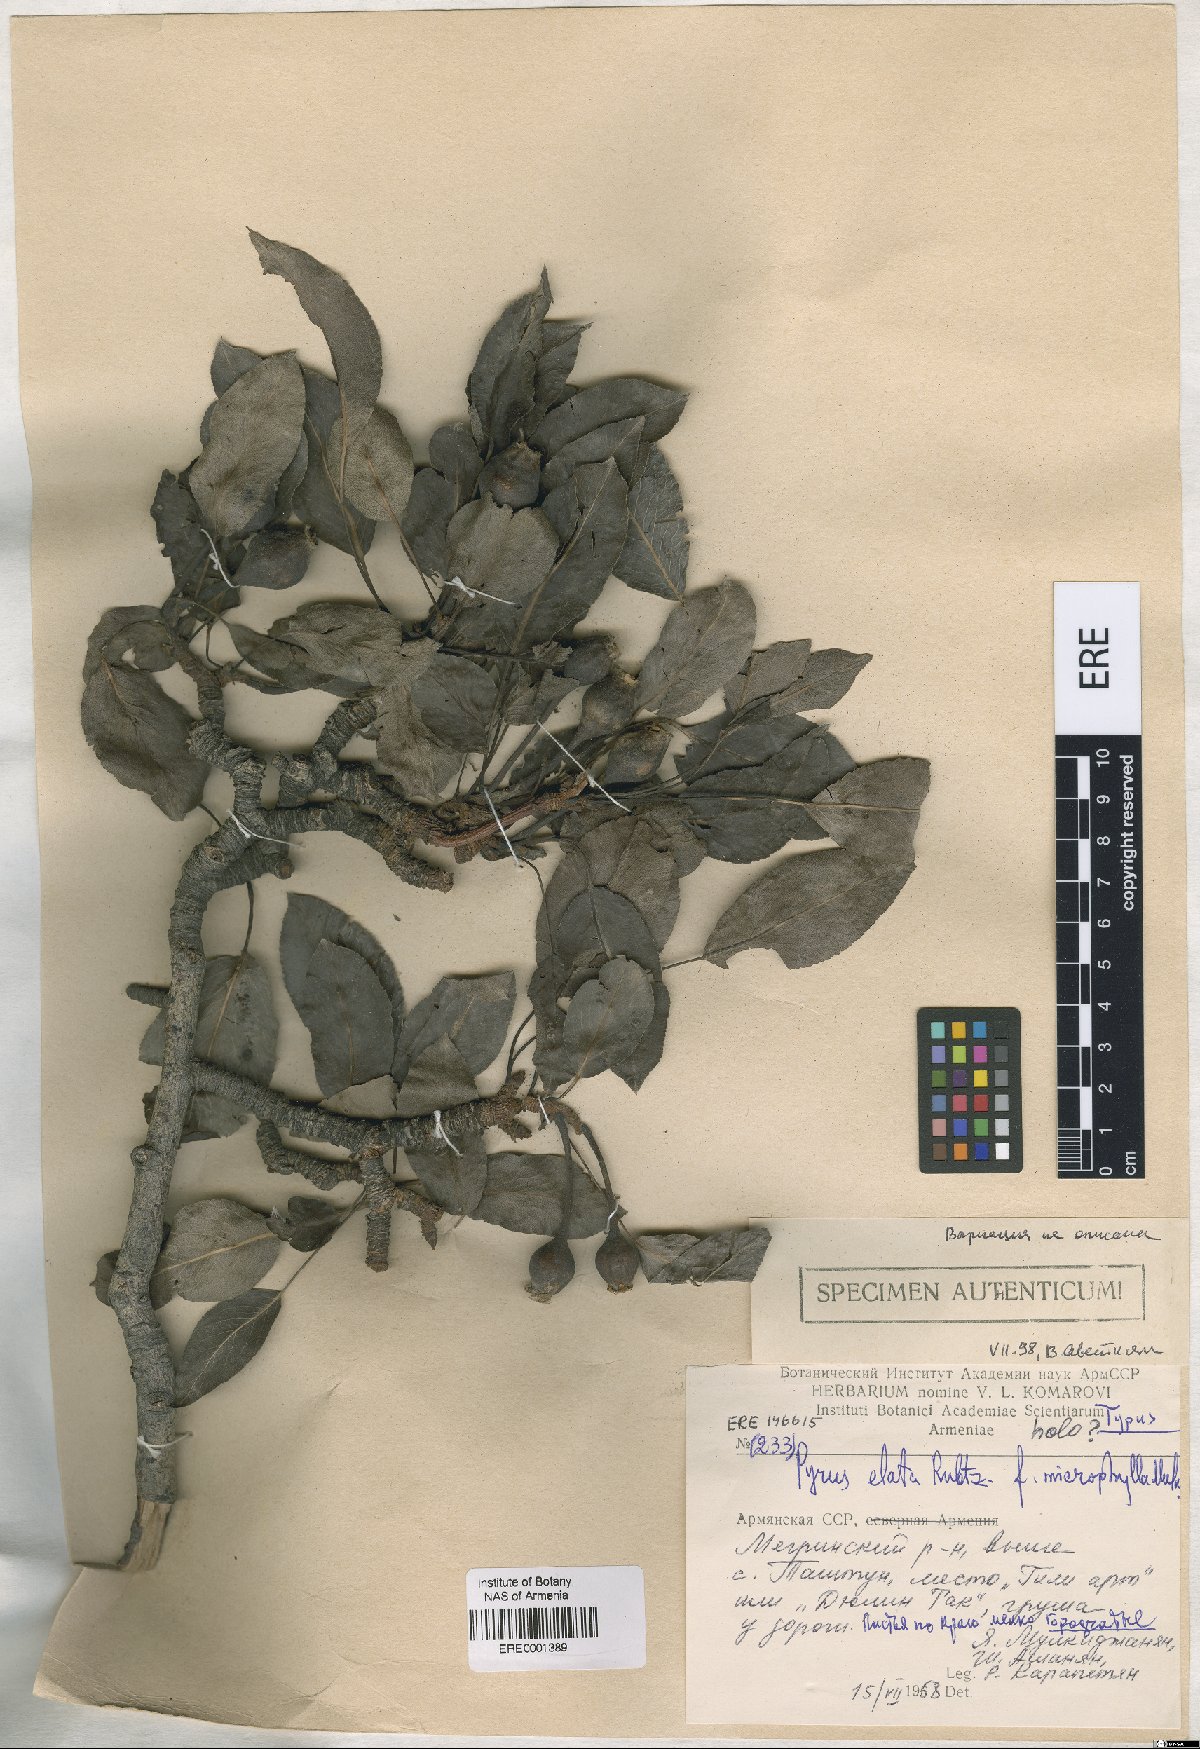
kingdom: Plantae
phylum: Tracheophyta
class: Magnoliopsida
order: Rosales
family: Rosaceae
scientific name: Rosaceae
